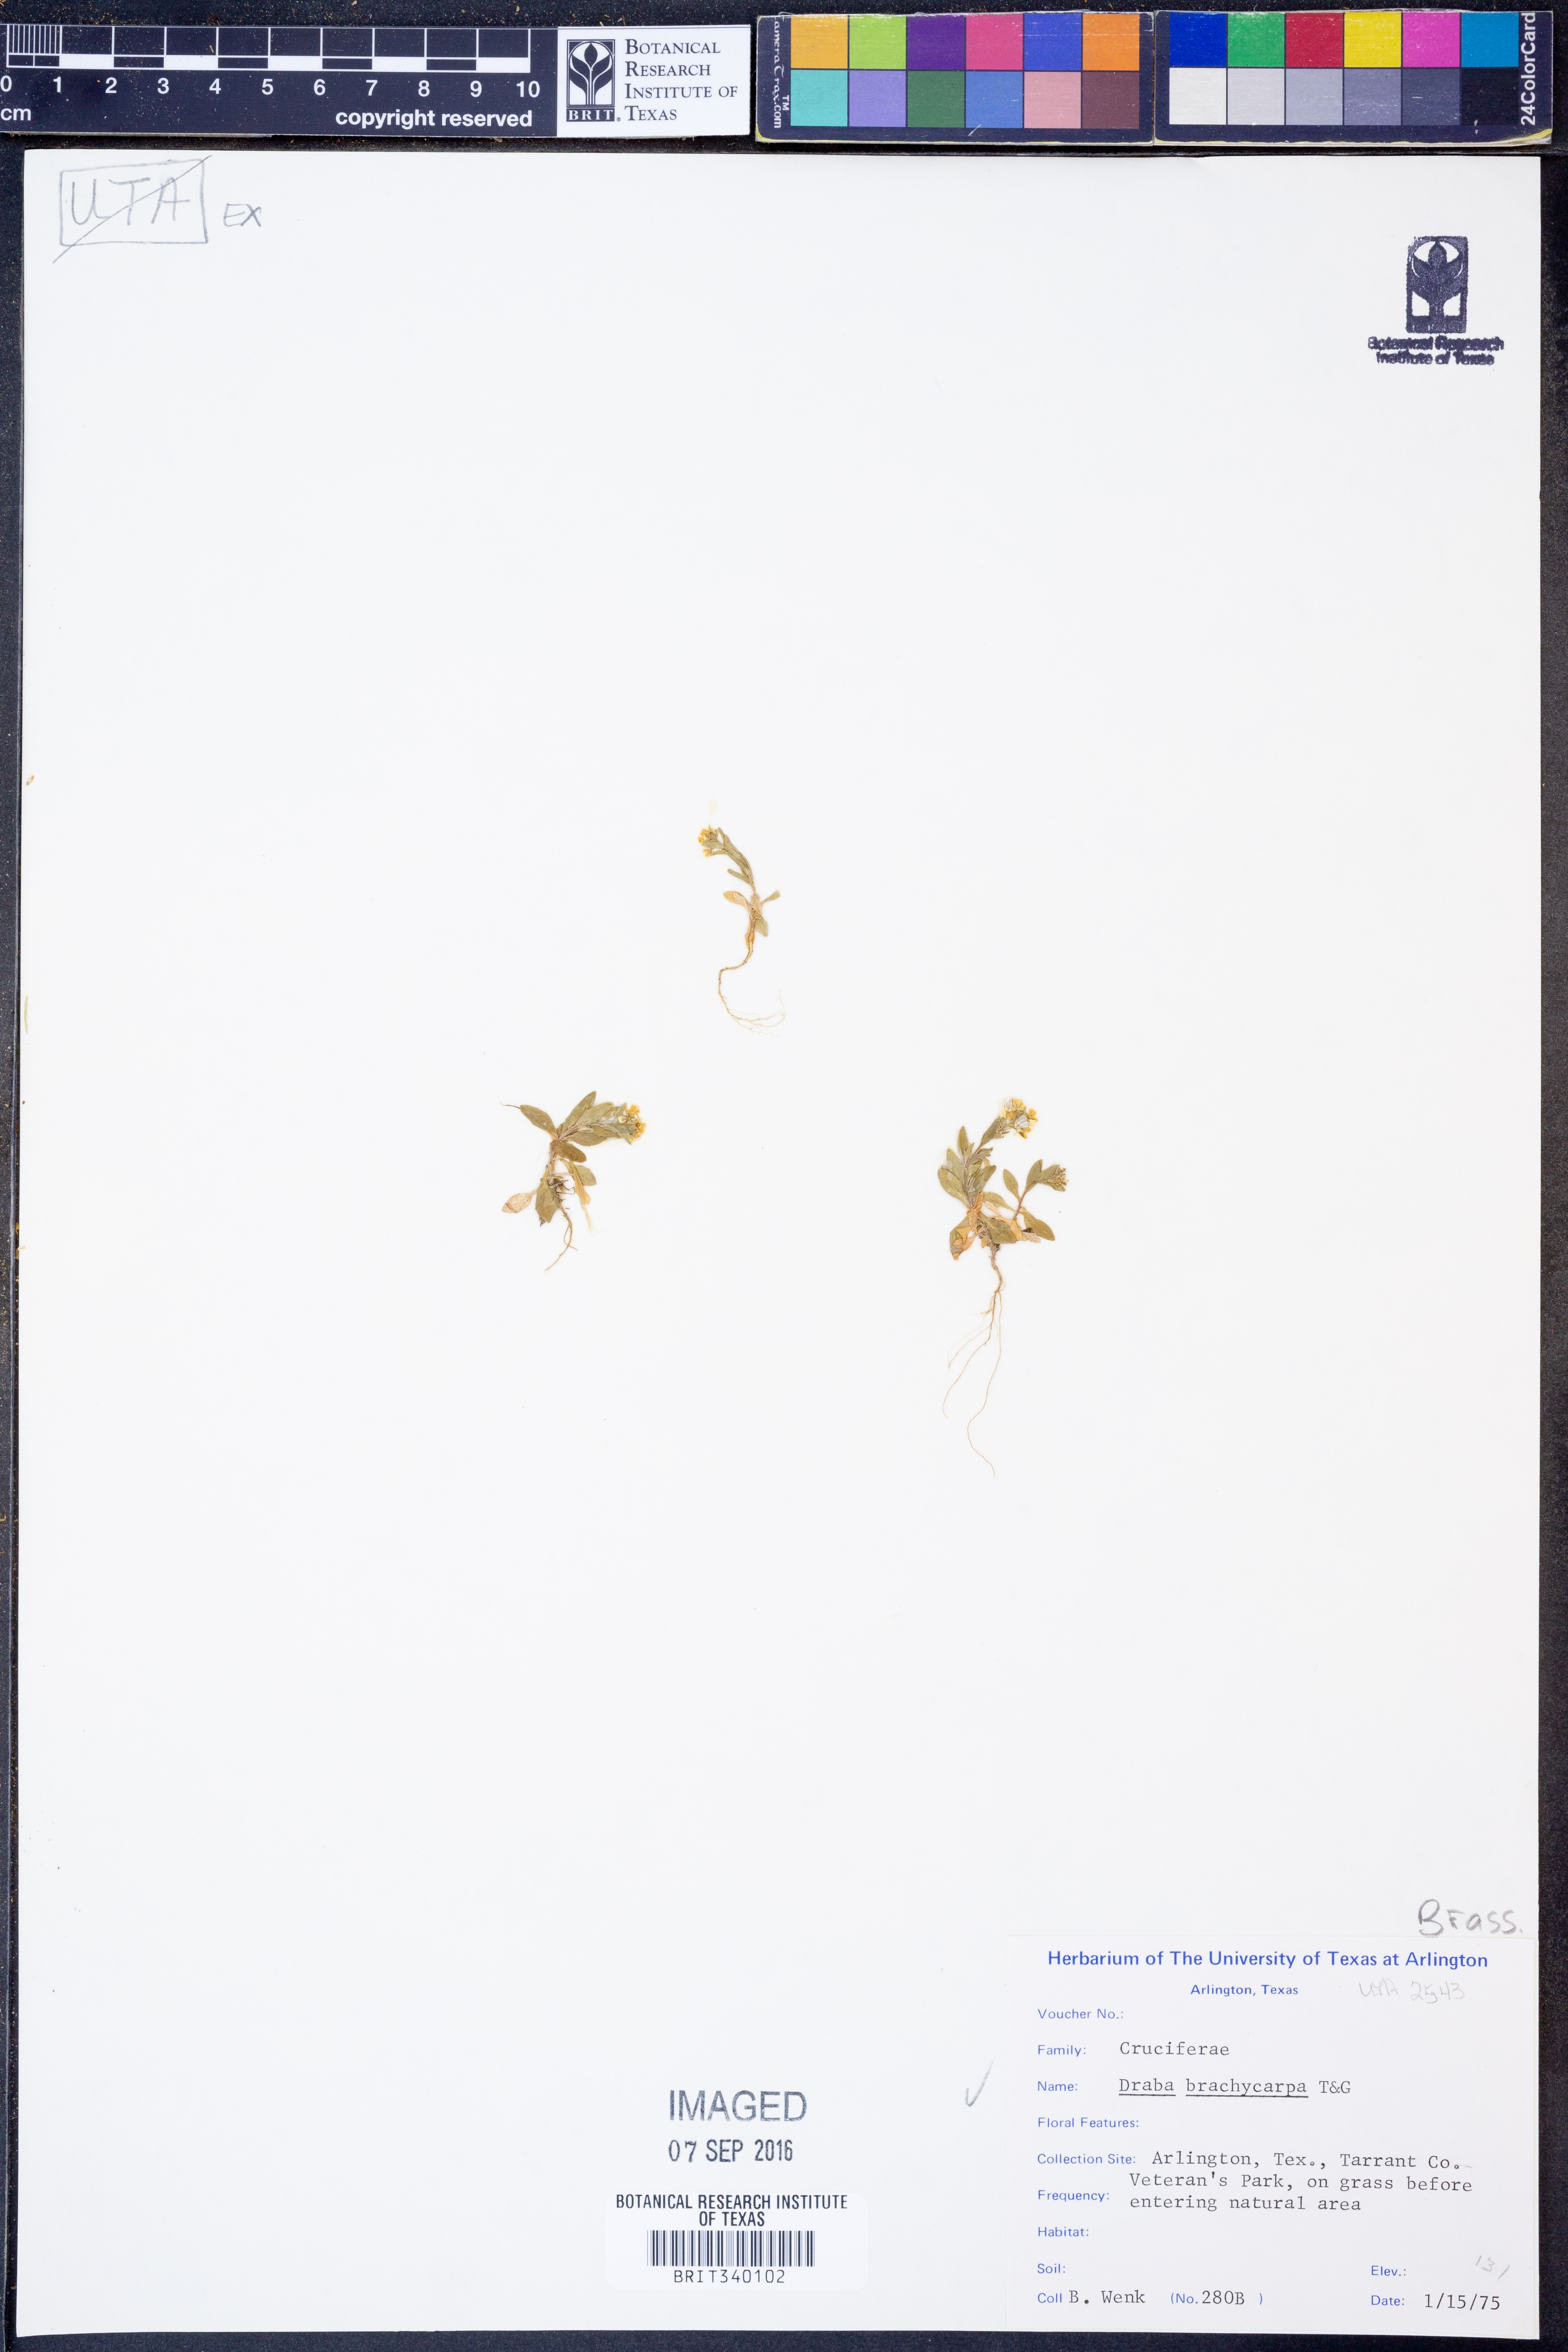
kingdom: Plantae
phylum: Tracheophyta
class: Magnoliopsida
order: Brassicales
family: Brassicaceae
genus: Abdra
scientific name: Abdra brachycarpa
